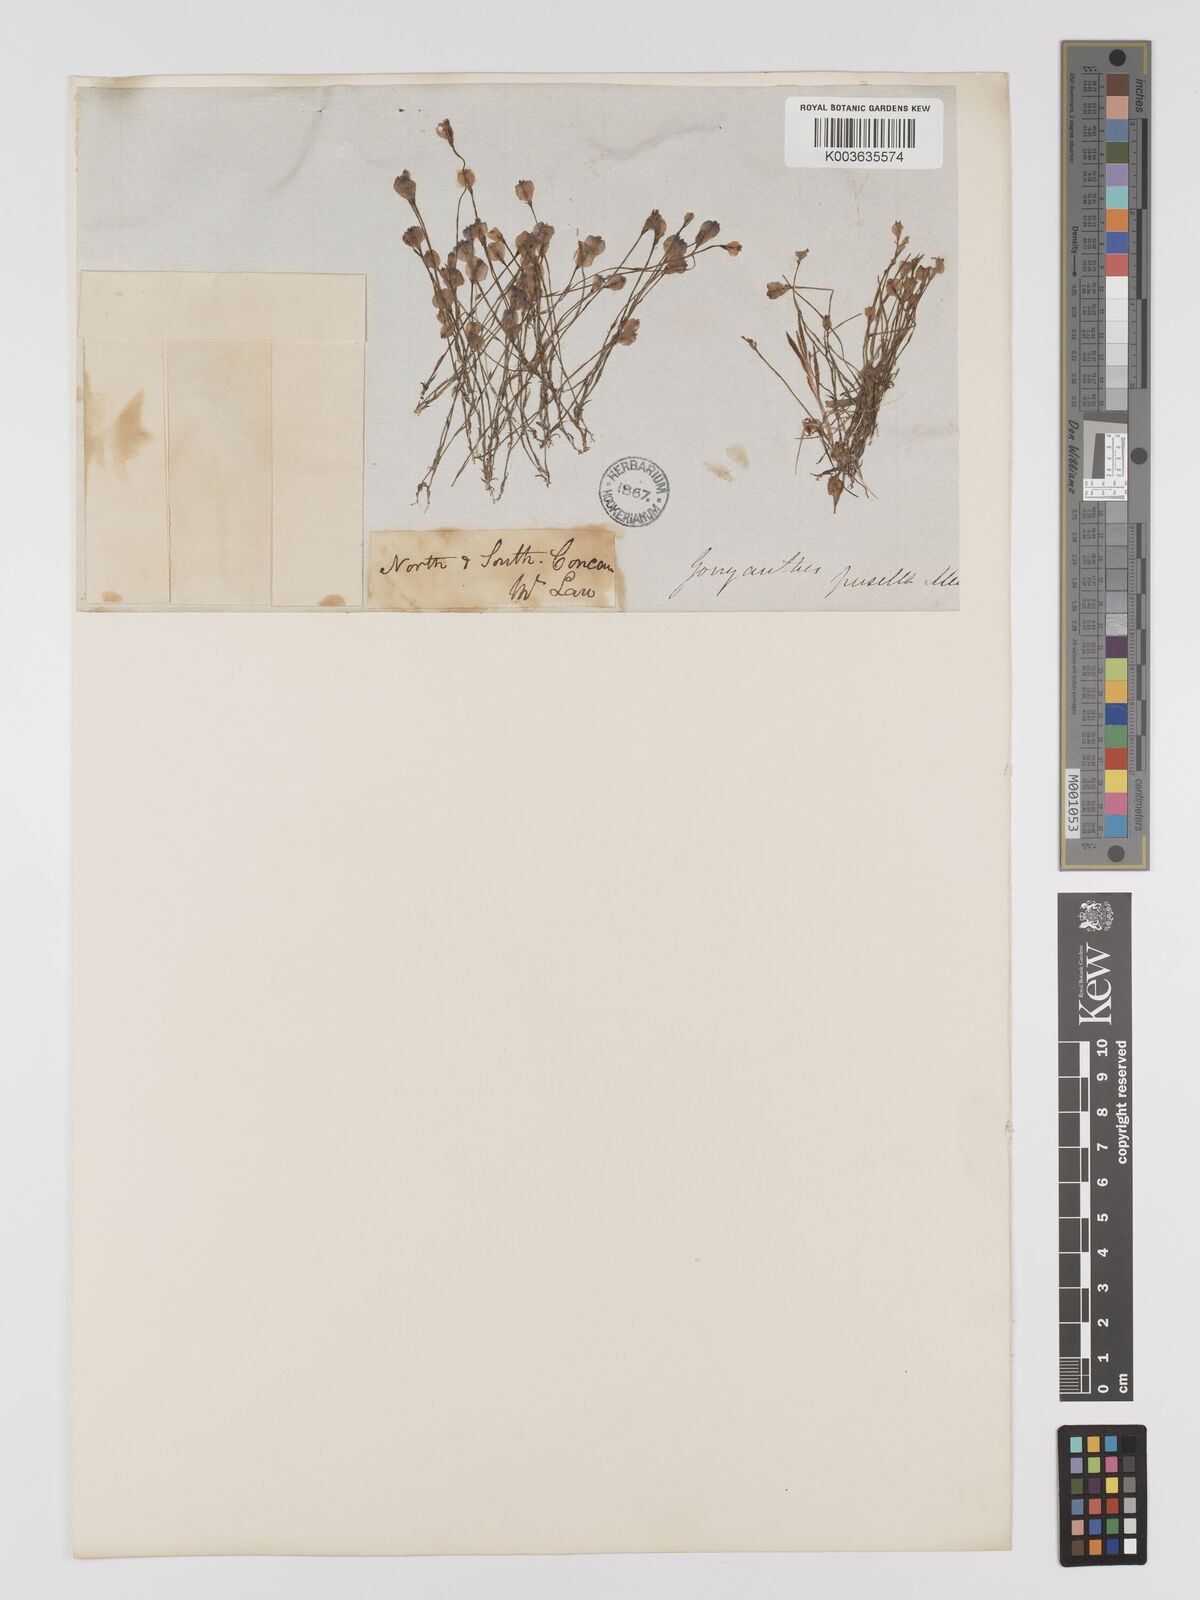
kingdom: Plantae
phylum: Tracheophyta
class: Liliopsida
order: Dioscoreales
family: Burmanniaceae
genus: Burmannia
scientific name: Burmannia pusilla
